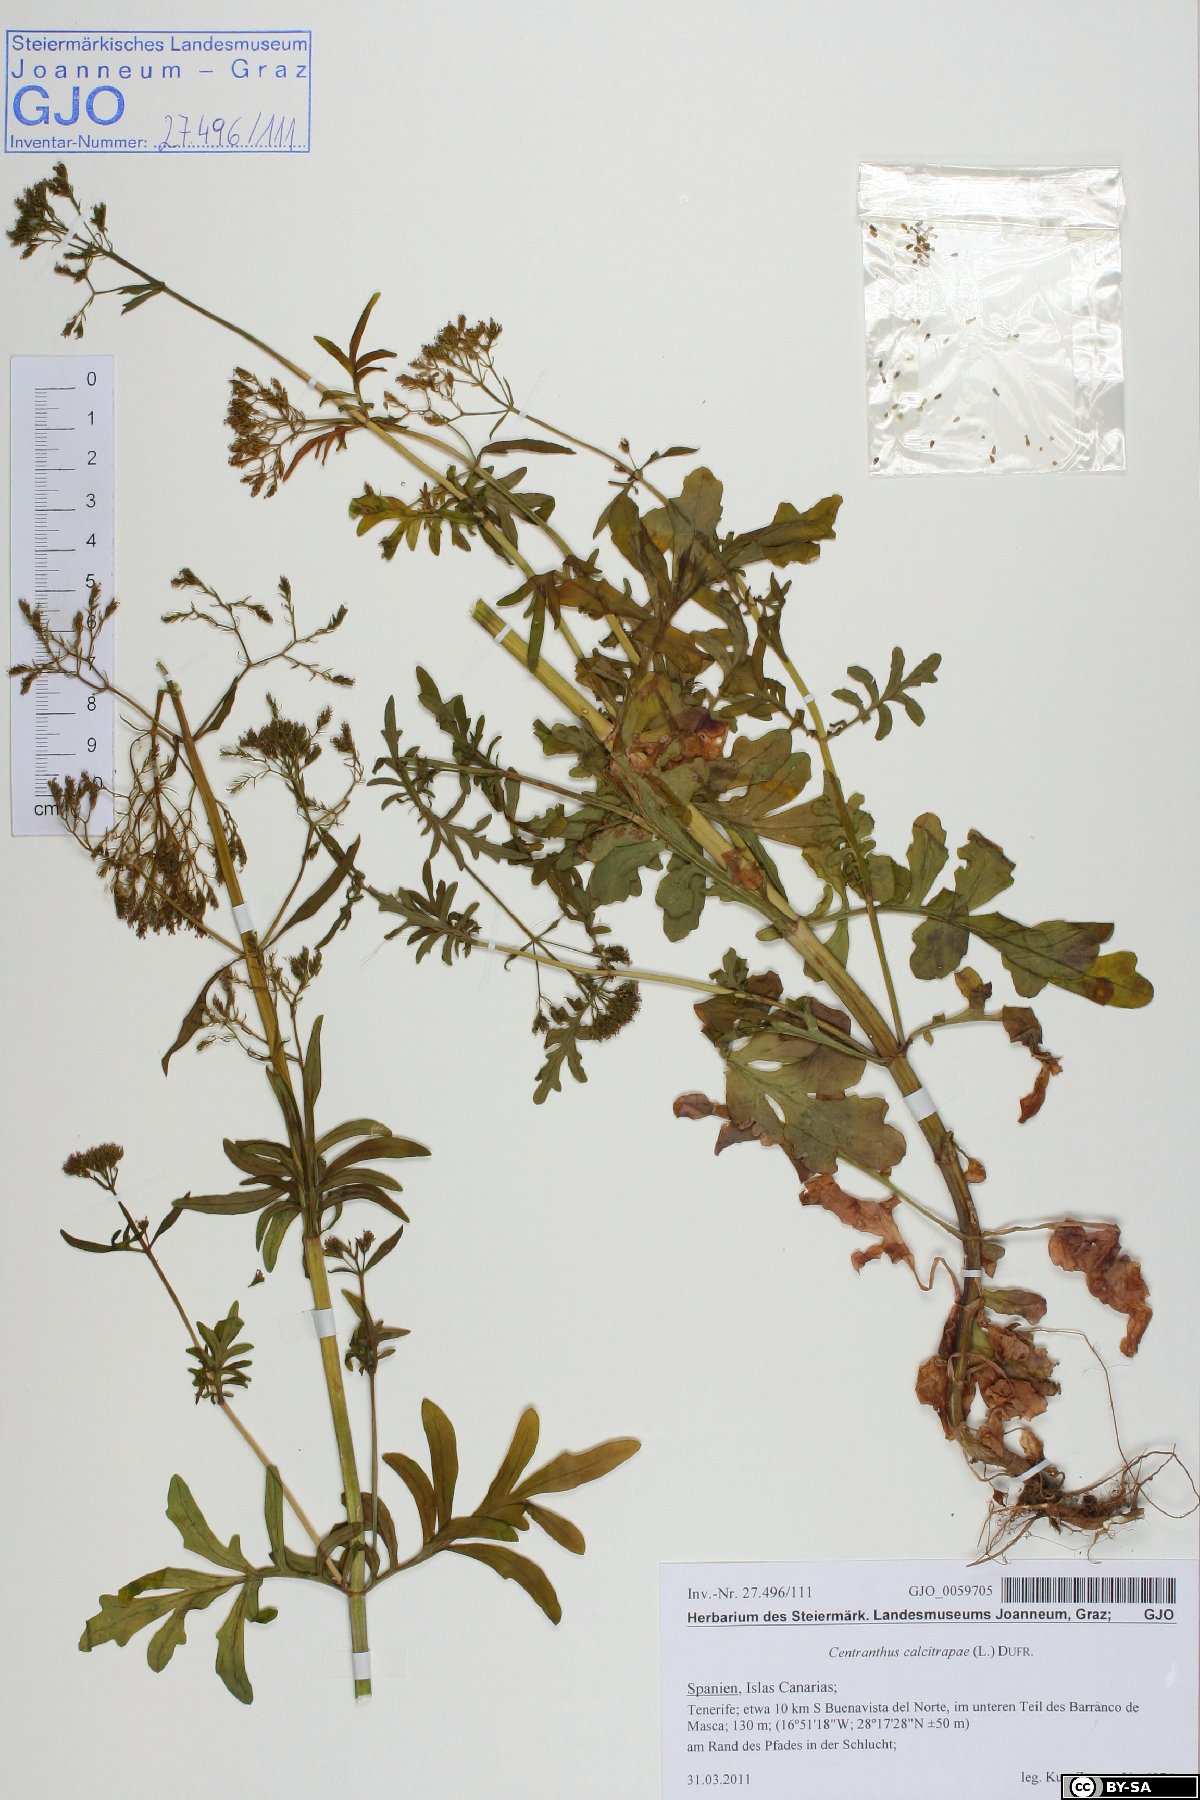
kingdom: Plantae
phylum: Tracheophyta
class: Magnoliopsida
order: Dipsacales
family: Caprifoliaceae
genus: Centranthus
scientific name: Centranthus calcitrapae
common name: Annual valerian
